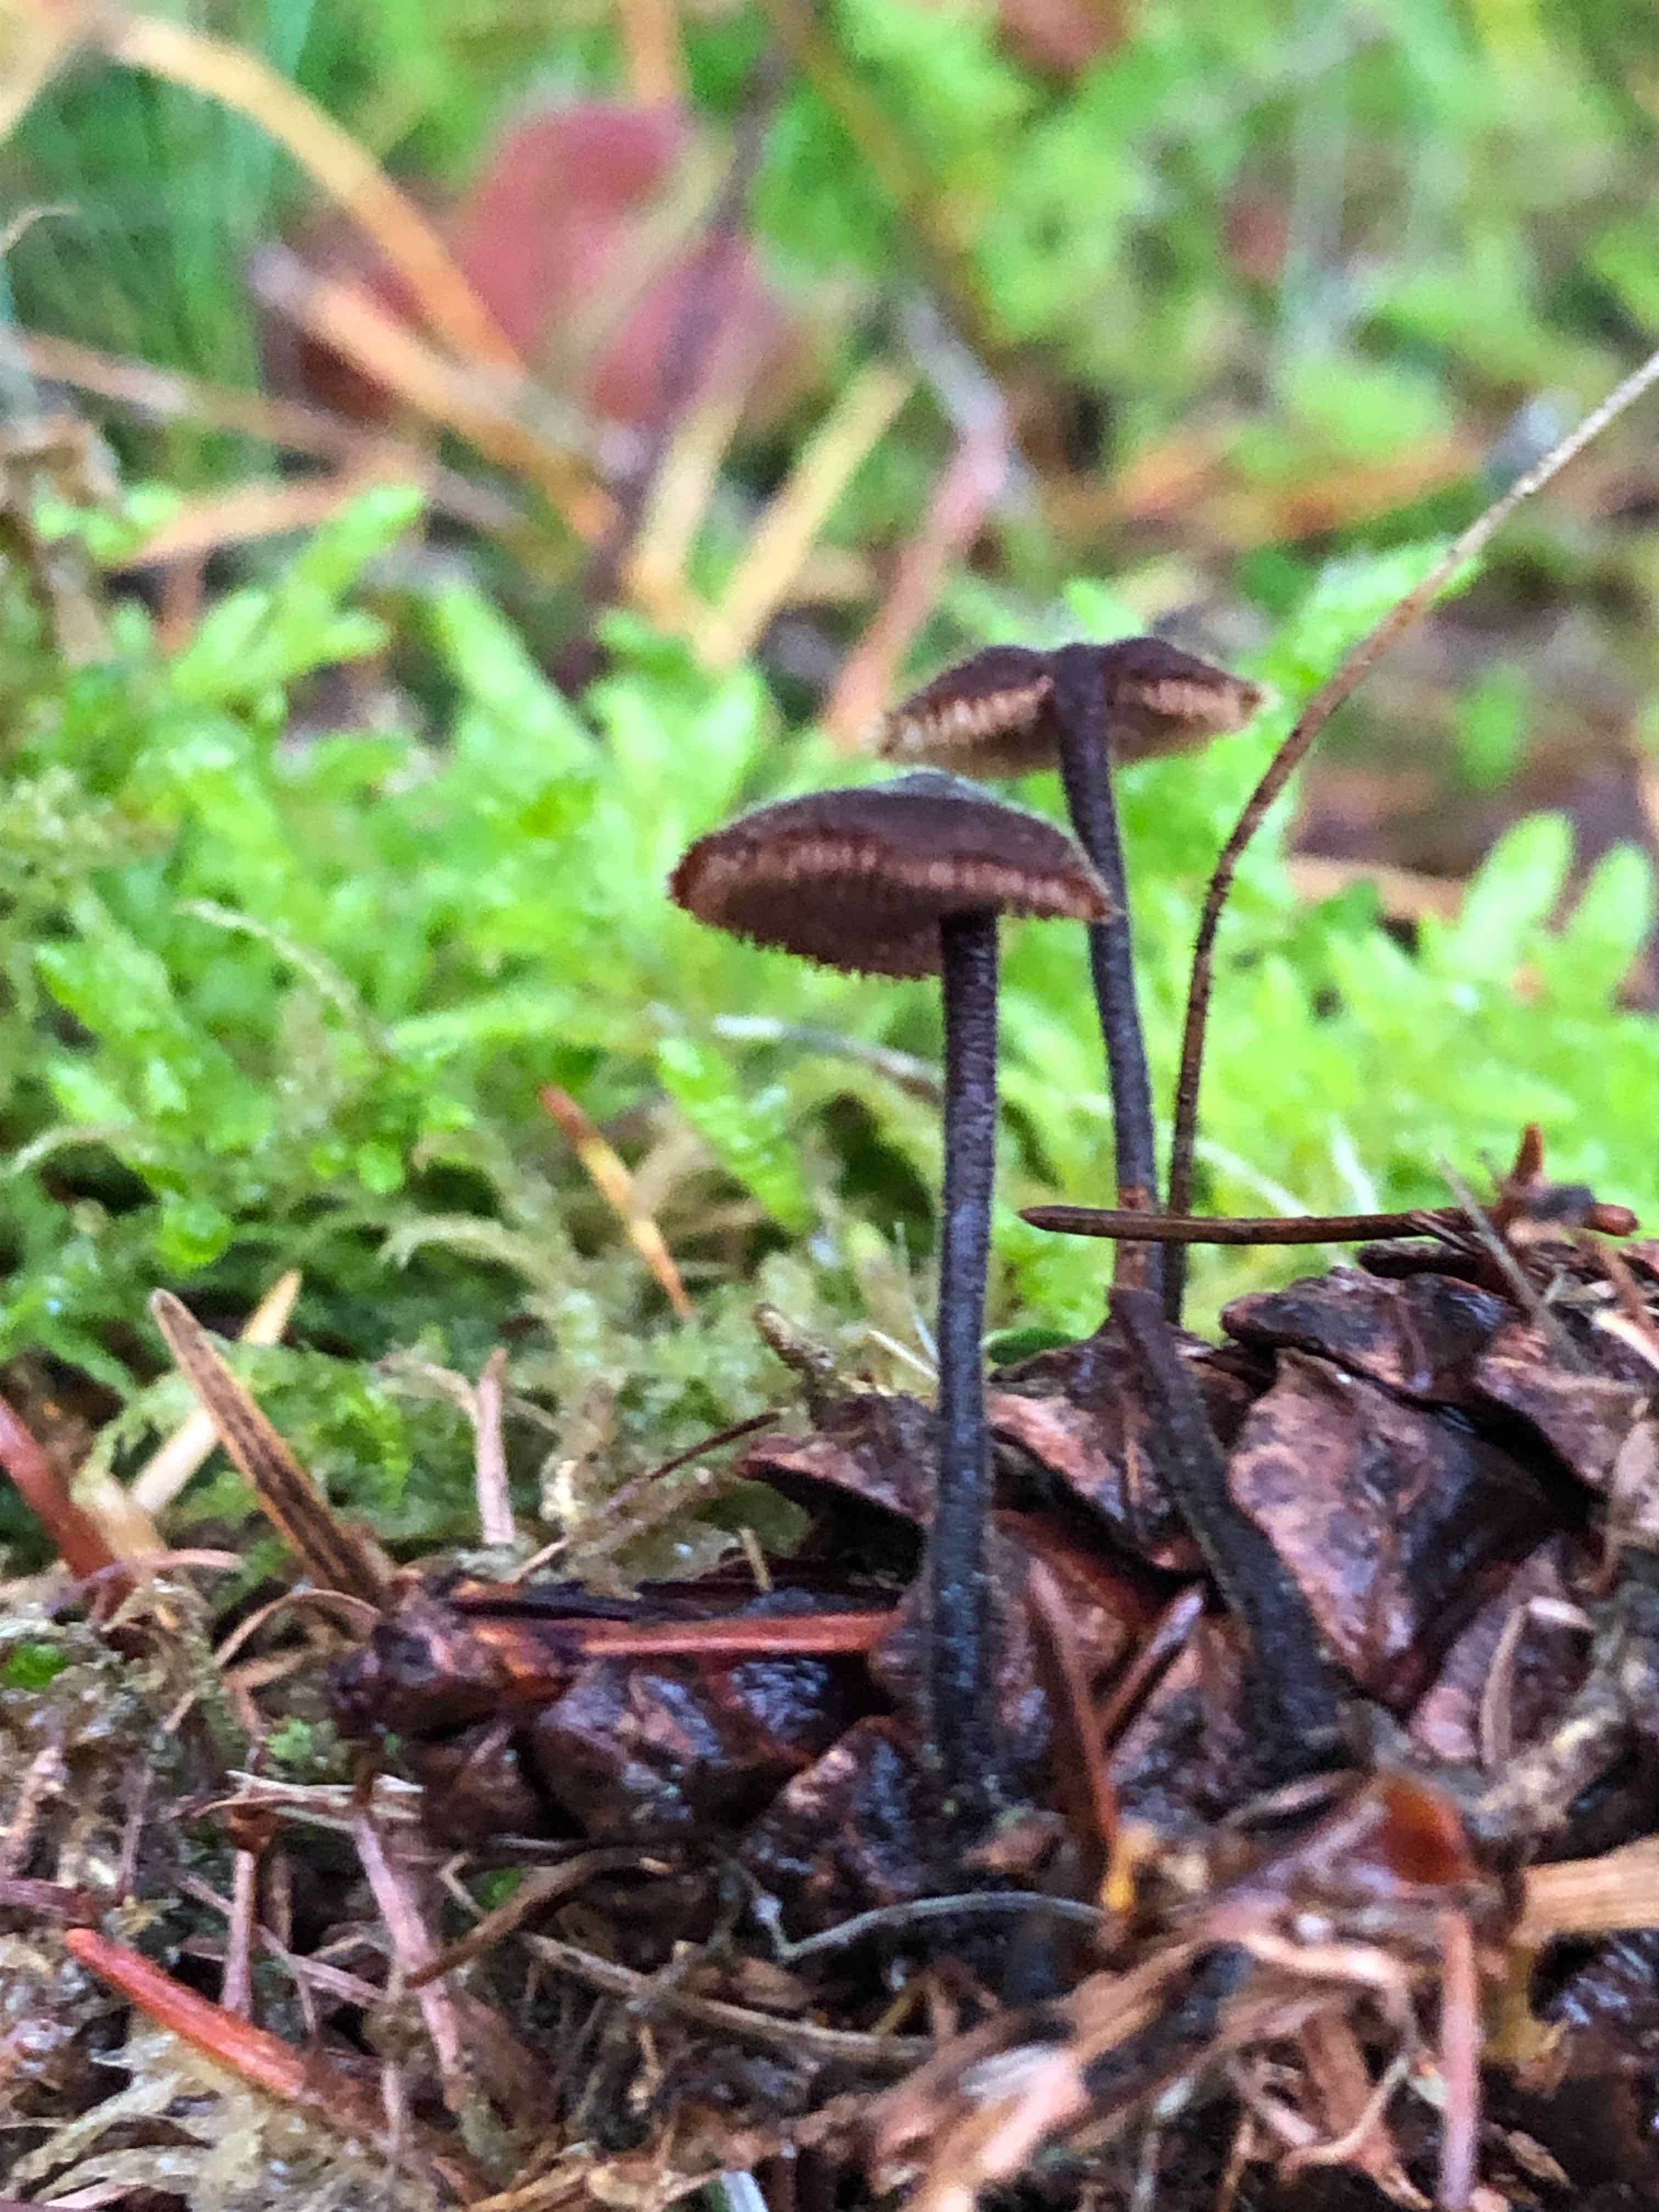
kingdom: Fungi
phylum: Basidiomycota
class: Agaricomycetes
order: Russulales
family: Auriscalpiaceae
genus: Auriscalpium
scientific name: Auriscalpium vulgare
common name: koglepigsvamp
